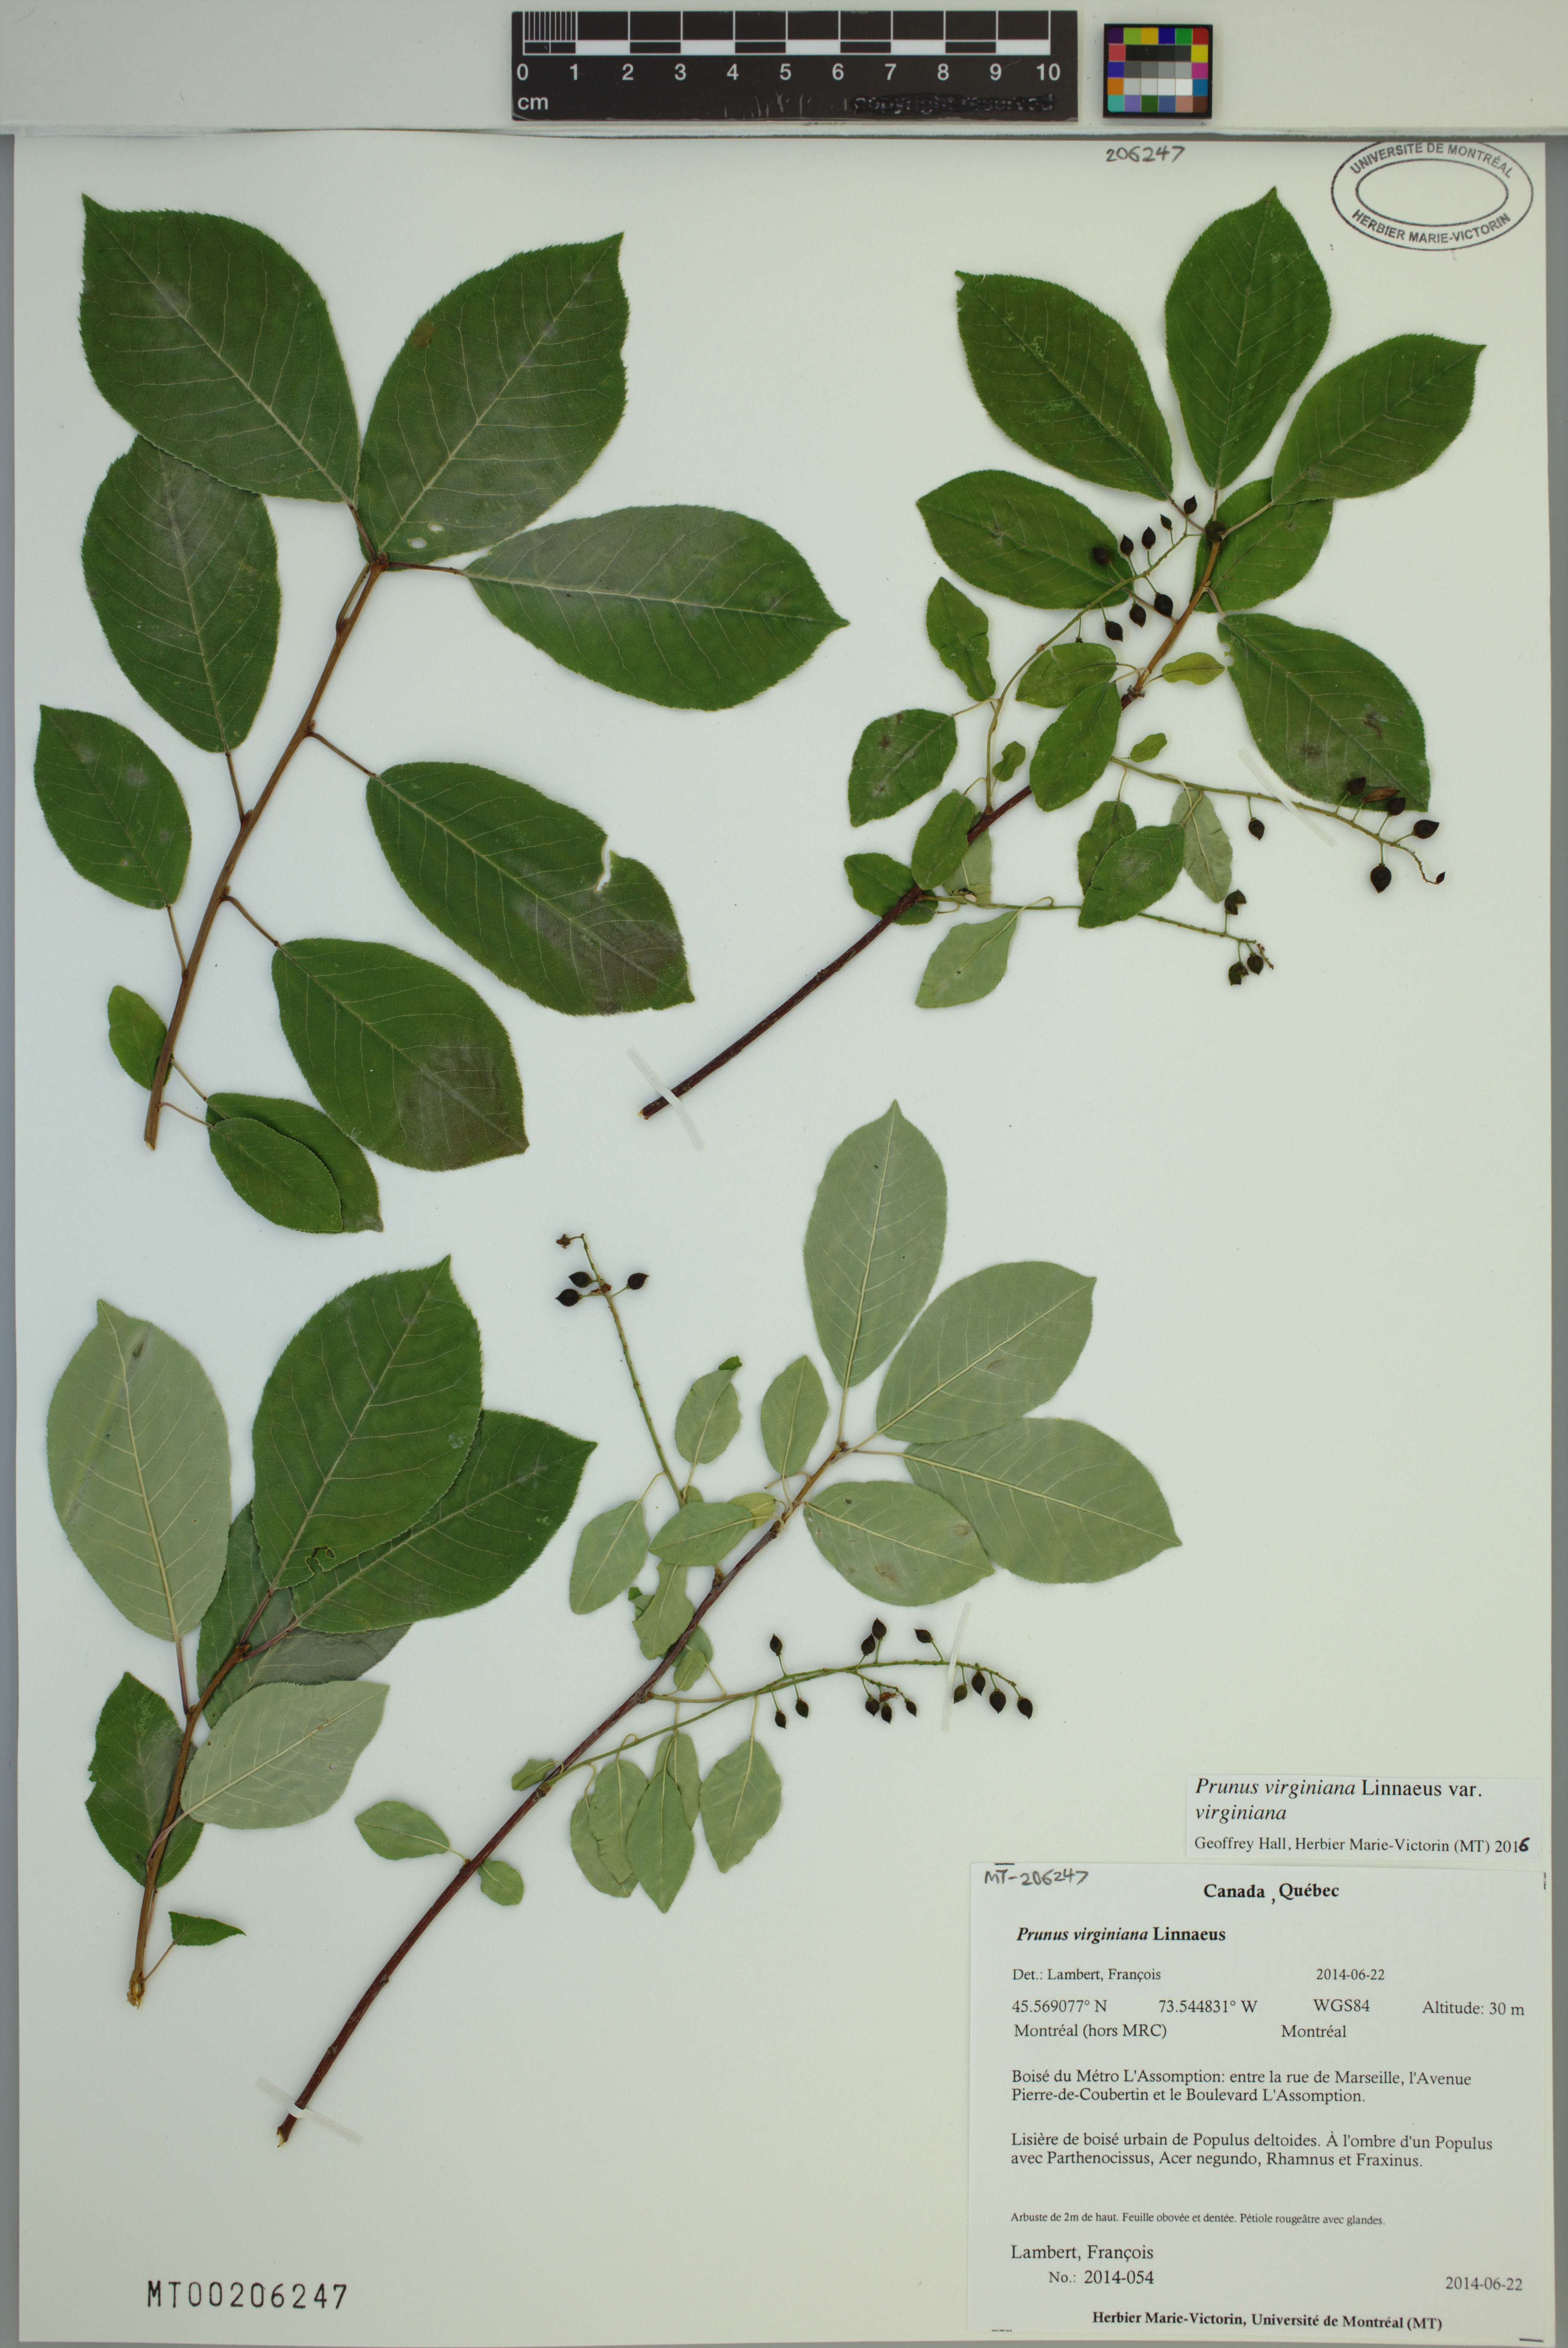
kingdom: Plantae
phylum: Tracheophyta
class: Magnoliopsida
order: Rosales
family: Rosaceae
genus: Prunus
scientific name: Prunus virginiana
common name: Chokecherry
